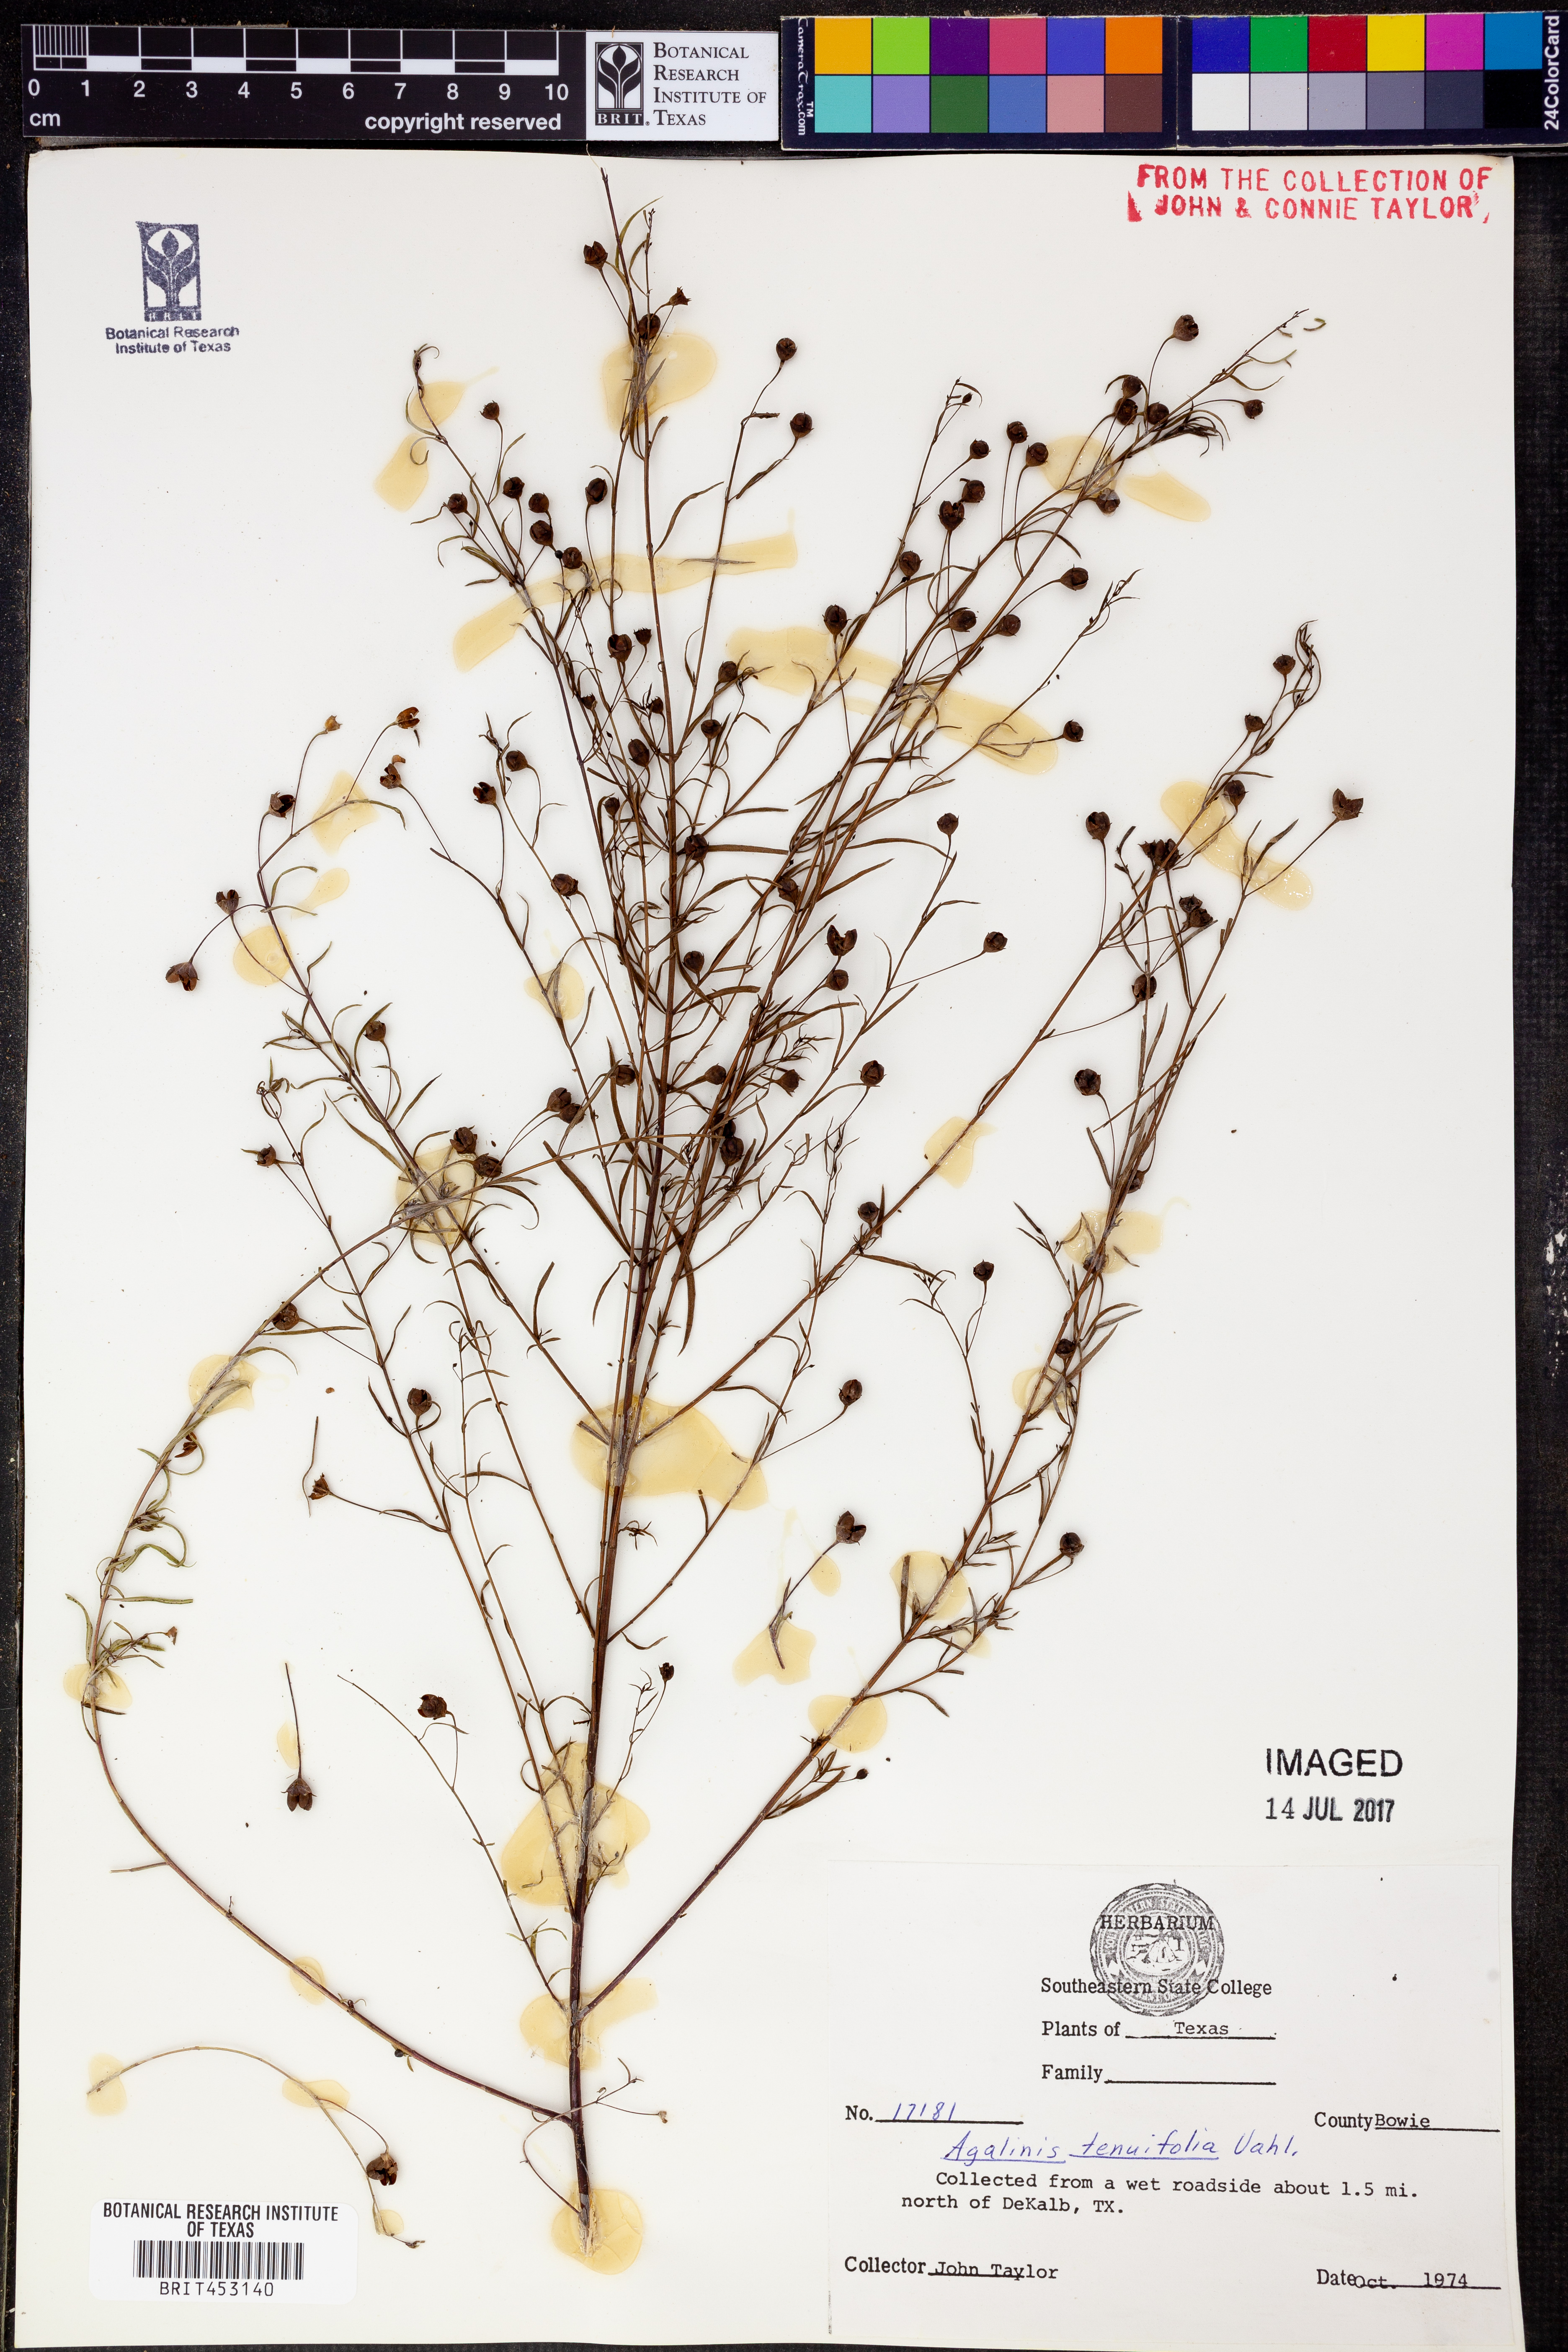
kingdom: Plantae
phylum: Tracheophyta
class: Magnoliopsida
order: Lamiales
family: Orobanchaceae
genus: Agalinis
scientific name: Agalinis tenuifolia
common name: Slender agalinis
